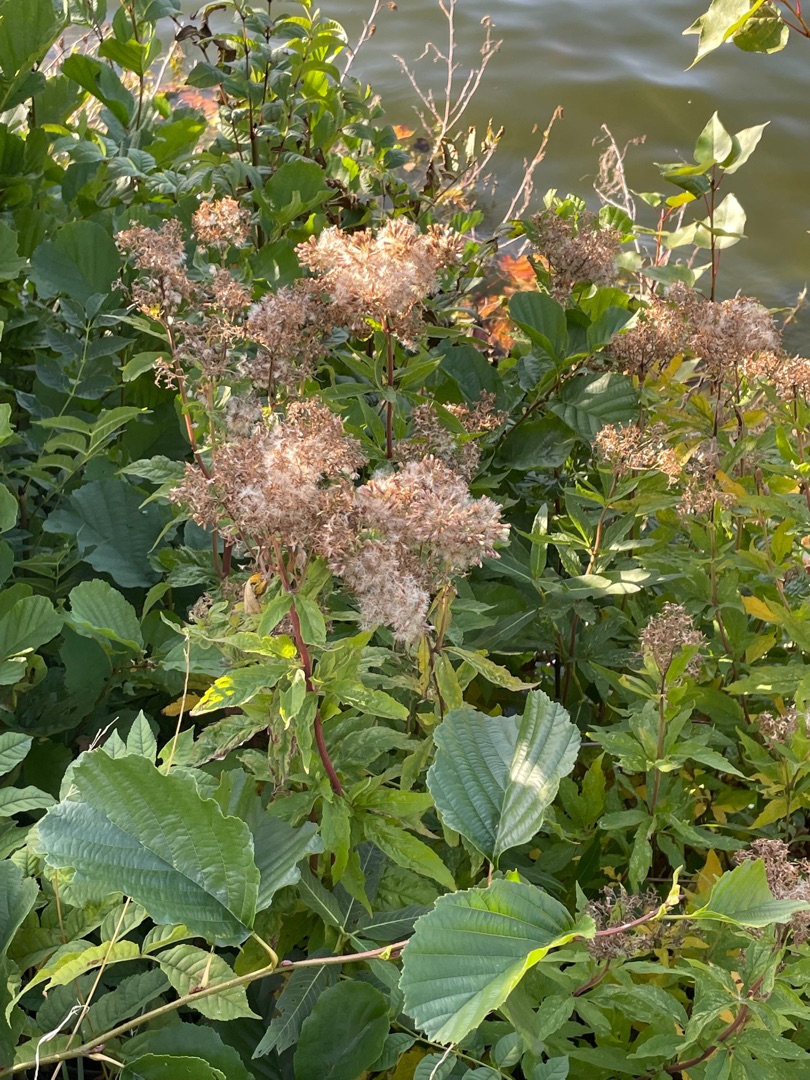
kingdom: Plantae
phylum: Tracheophyta
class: Magnoliopsida
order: Asterales
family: Asteraceae
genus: Eupatorium
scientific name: Eupatorium cannabinum
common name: Hjortetrøst
